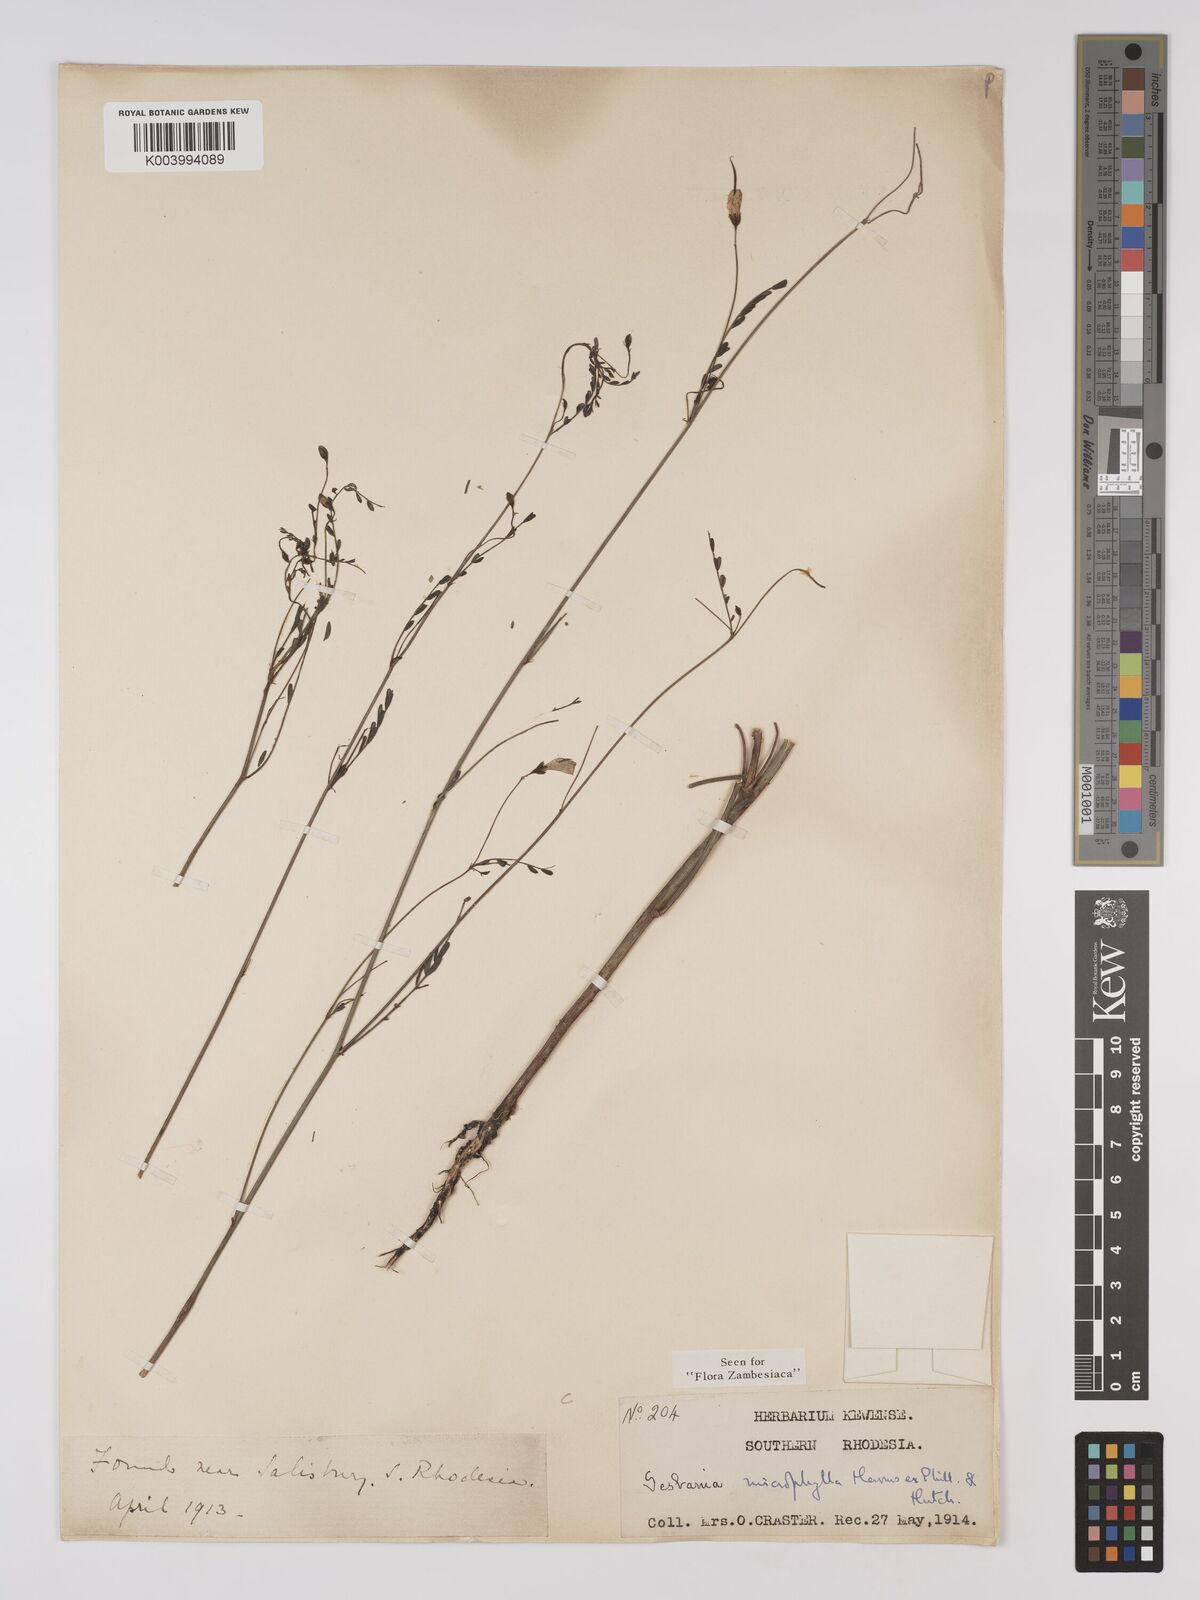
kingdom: Plantae
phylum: Tracheophyta
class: Magnoliopsida
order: Fabales
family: Fabaceae
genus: Sesbania
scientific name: Sesbania microphylla
